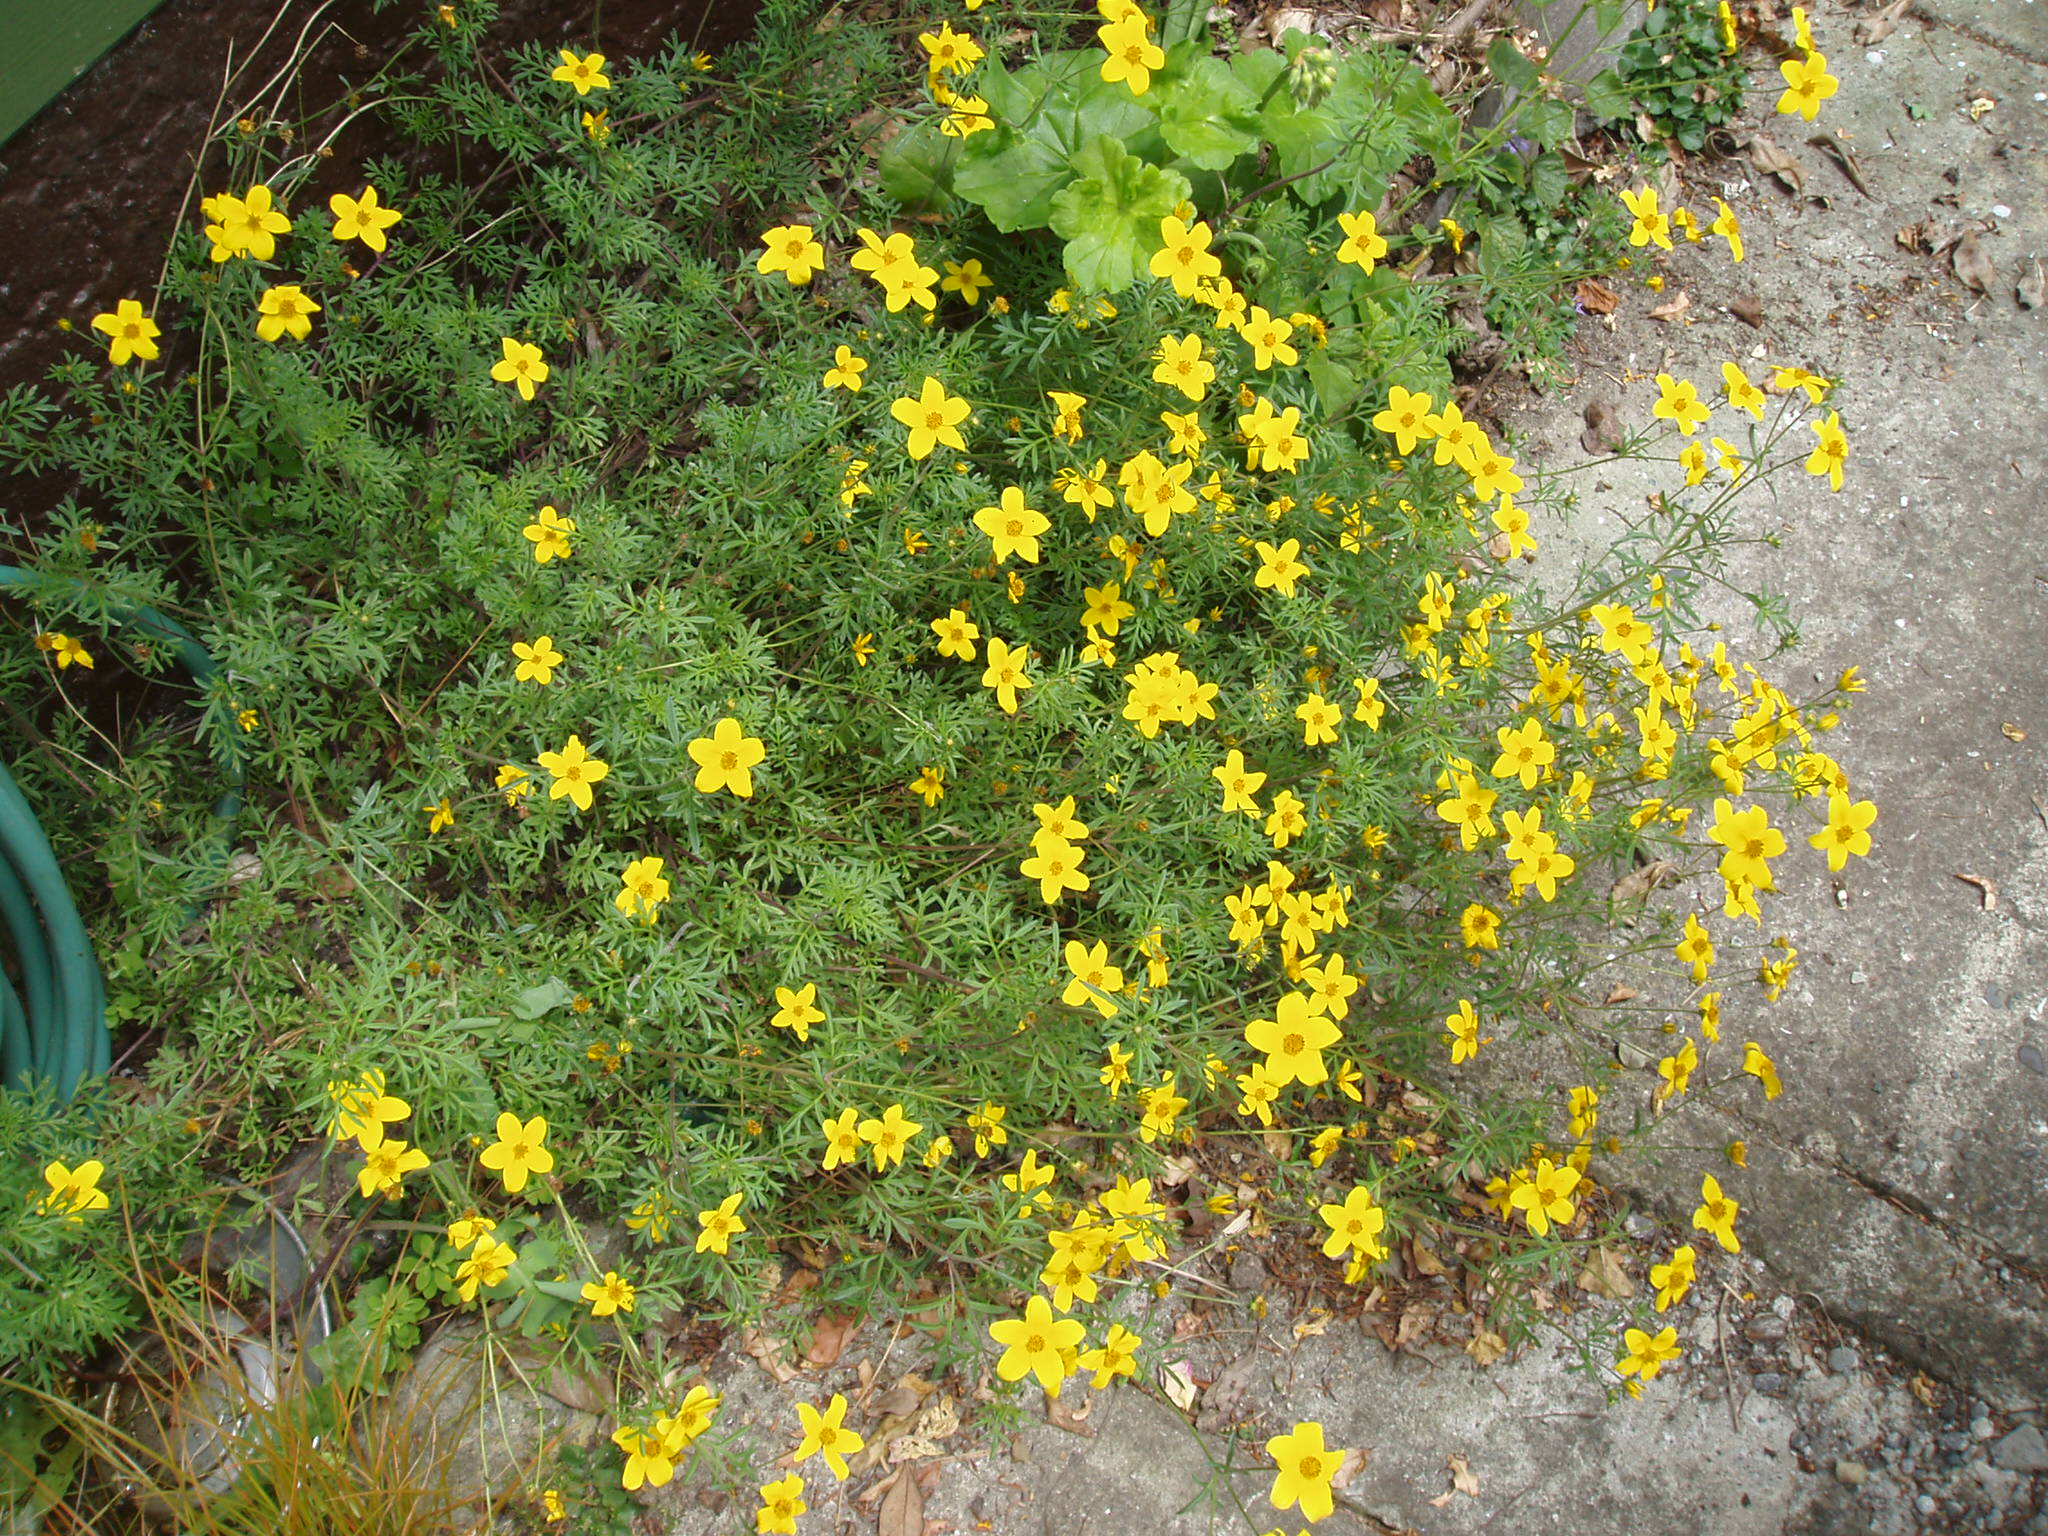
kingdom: Plantae
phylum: Tracheophyta
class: Magnoliopsida
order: Asterales
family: Asteraceae
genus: Bidens
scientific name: Bidens aurea
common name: Arizona beggar-ticks
